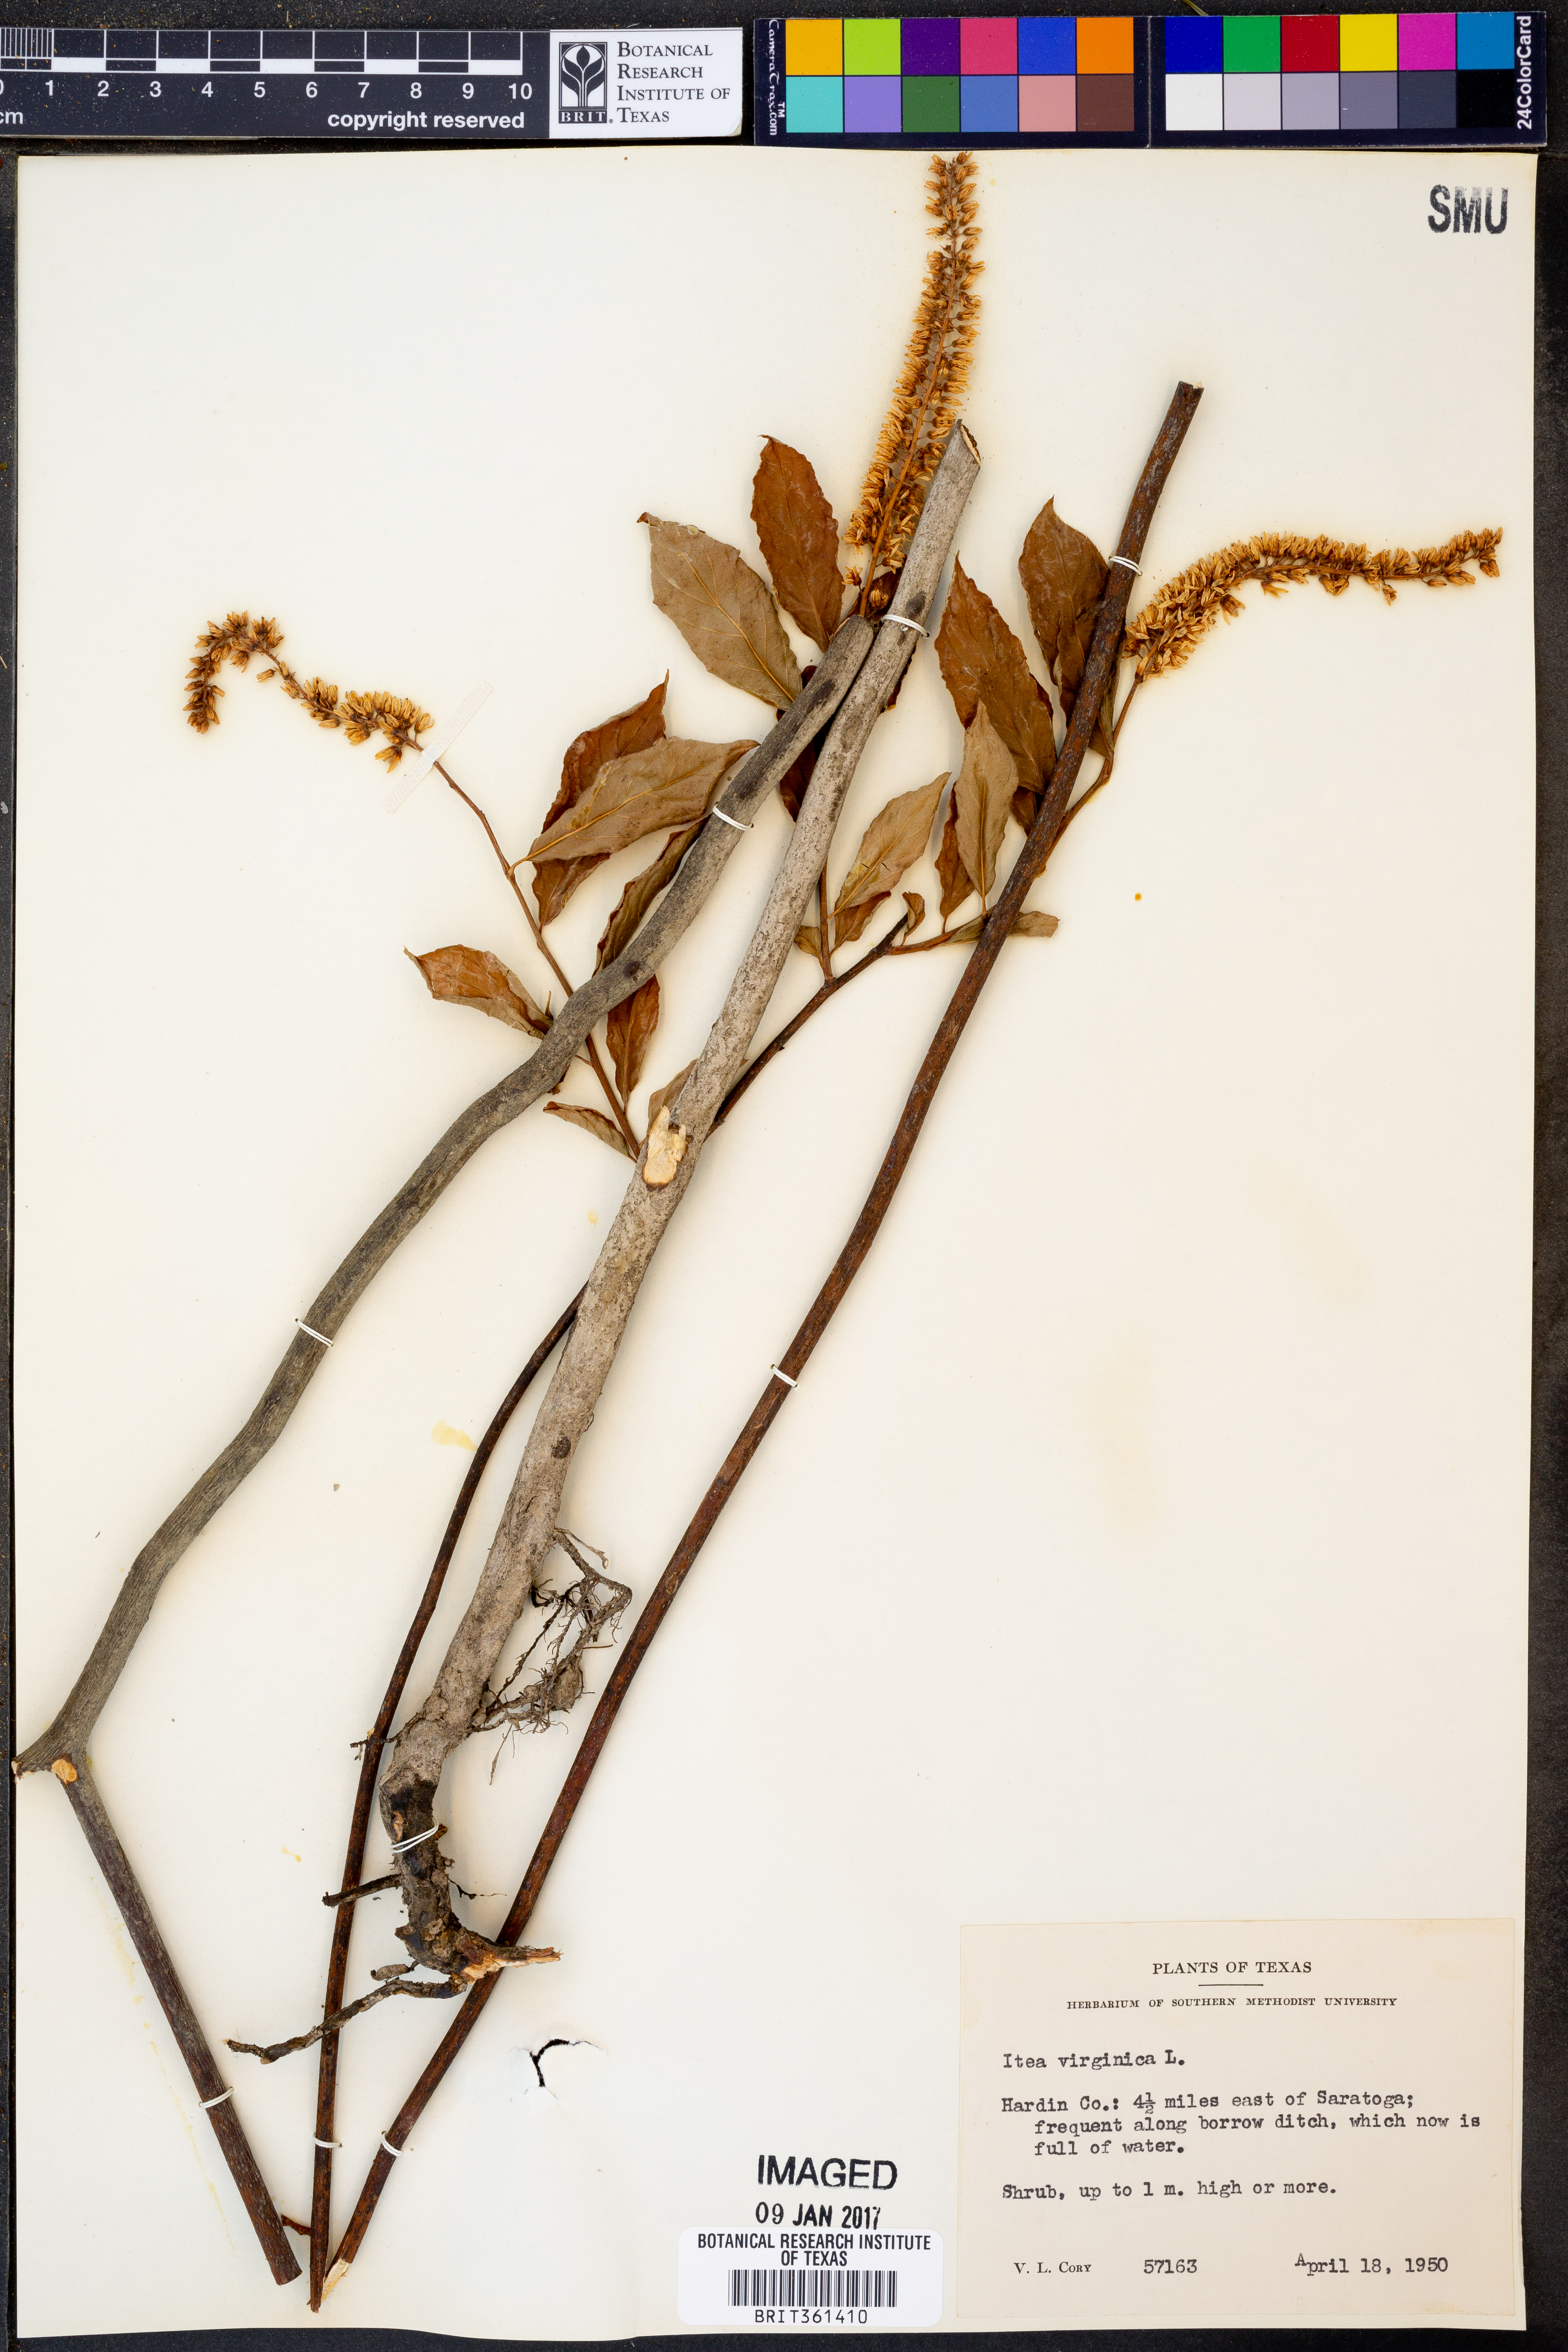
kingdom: Plantae
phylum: Tracheophyta
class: Magnoliopsida
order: Saxifragales
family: Iteaceae
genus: Itea
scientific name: Itea virginica
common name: Sweetspire
